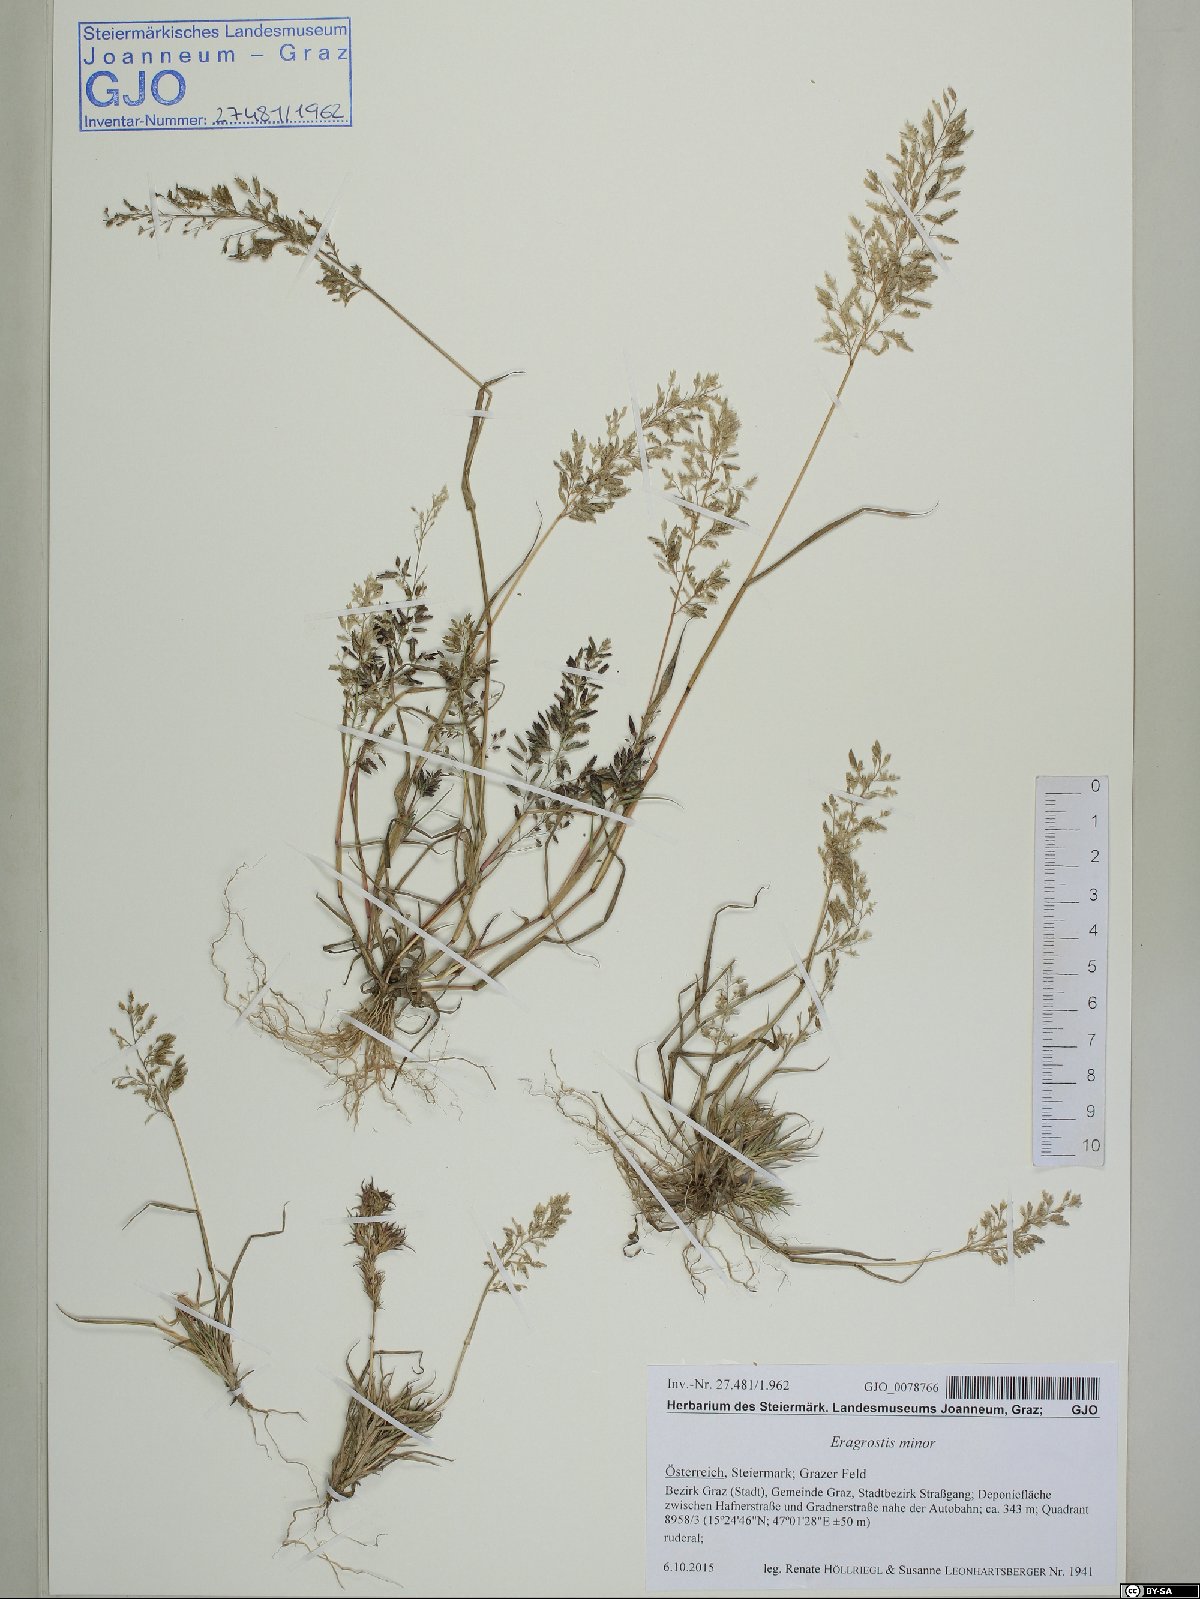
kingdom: Plantae
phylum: Tracheophyta
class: Liliopsida
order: Poales
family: Poaceae
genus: Eragrostis
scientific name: Eragrostis minor
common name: Small love-grass
